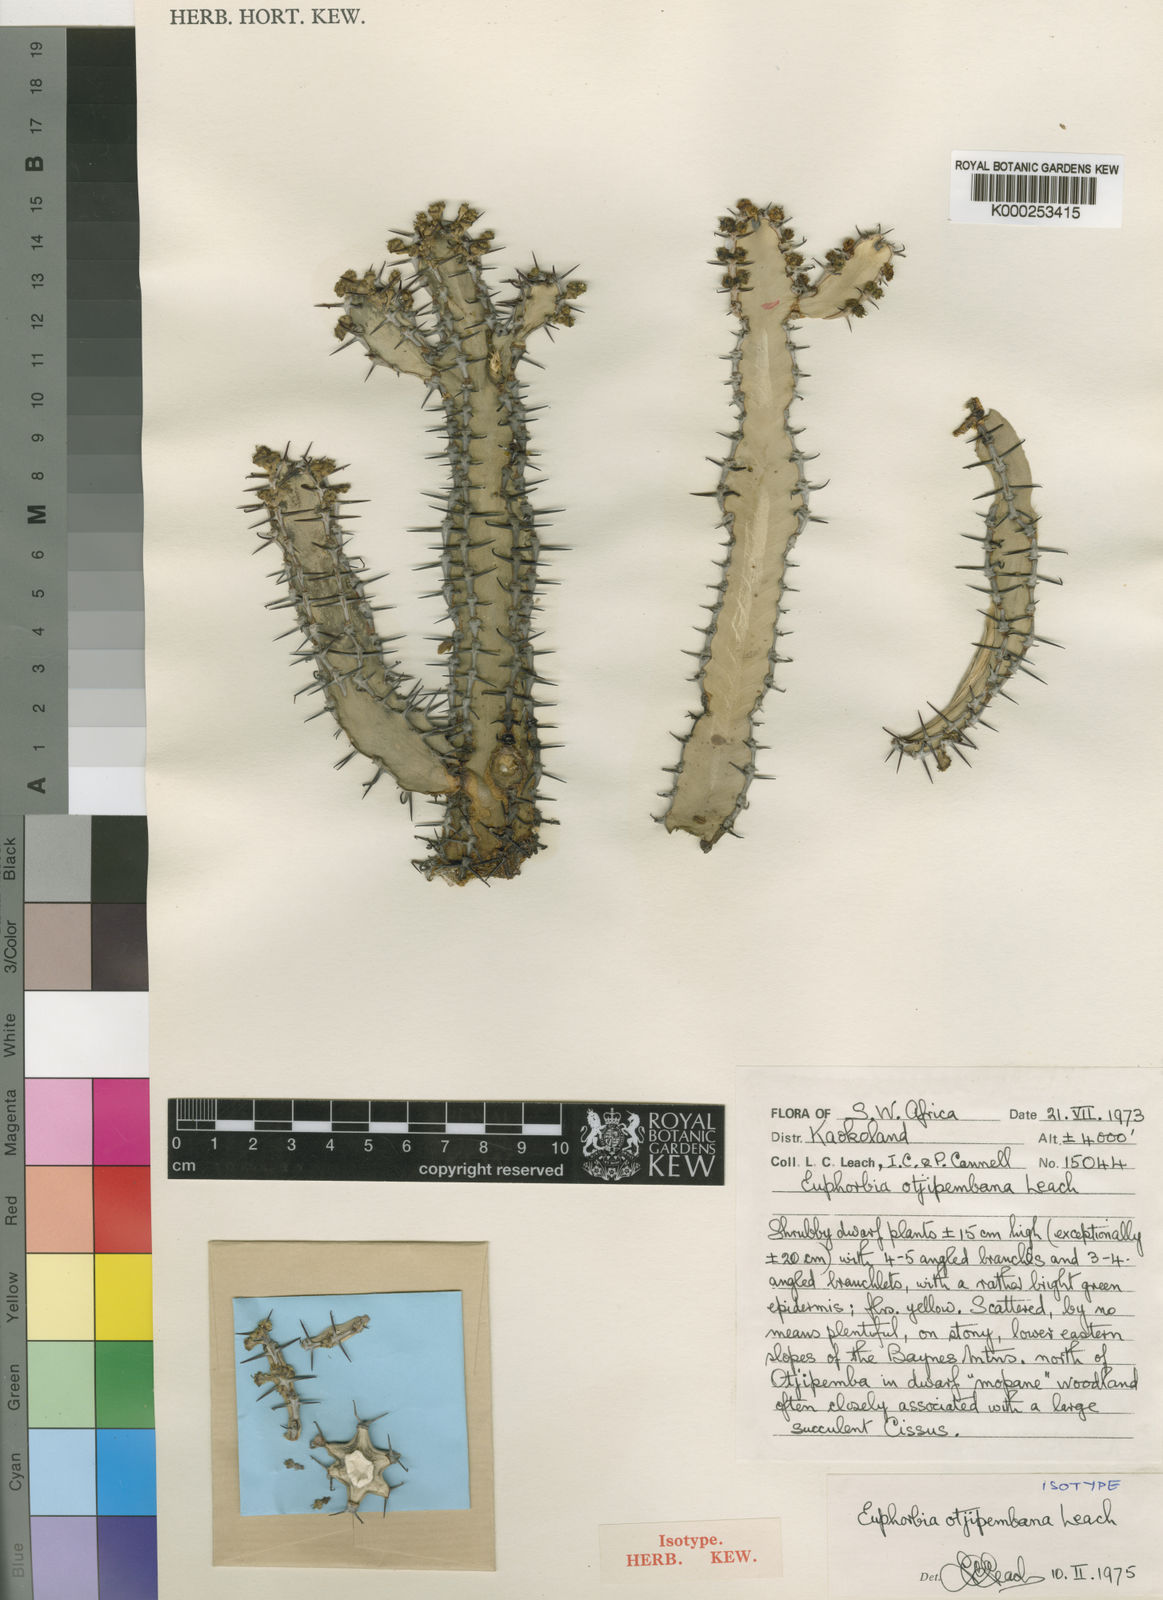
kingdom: Plantae
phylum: Tracheophyta
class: Magnoliopsida
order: Malpighiales
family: Euphorbiaceae
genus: Euphorbia
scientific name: Euphorbia otjipembana
